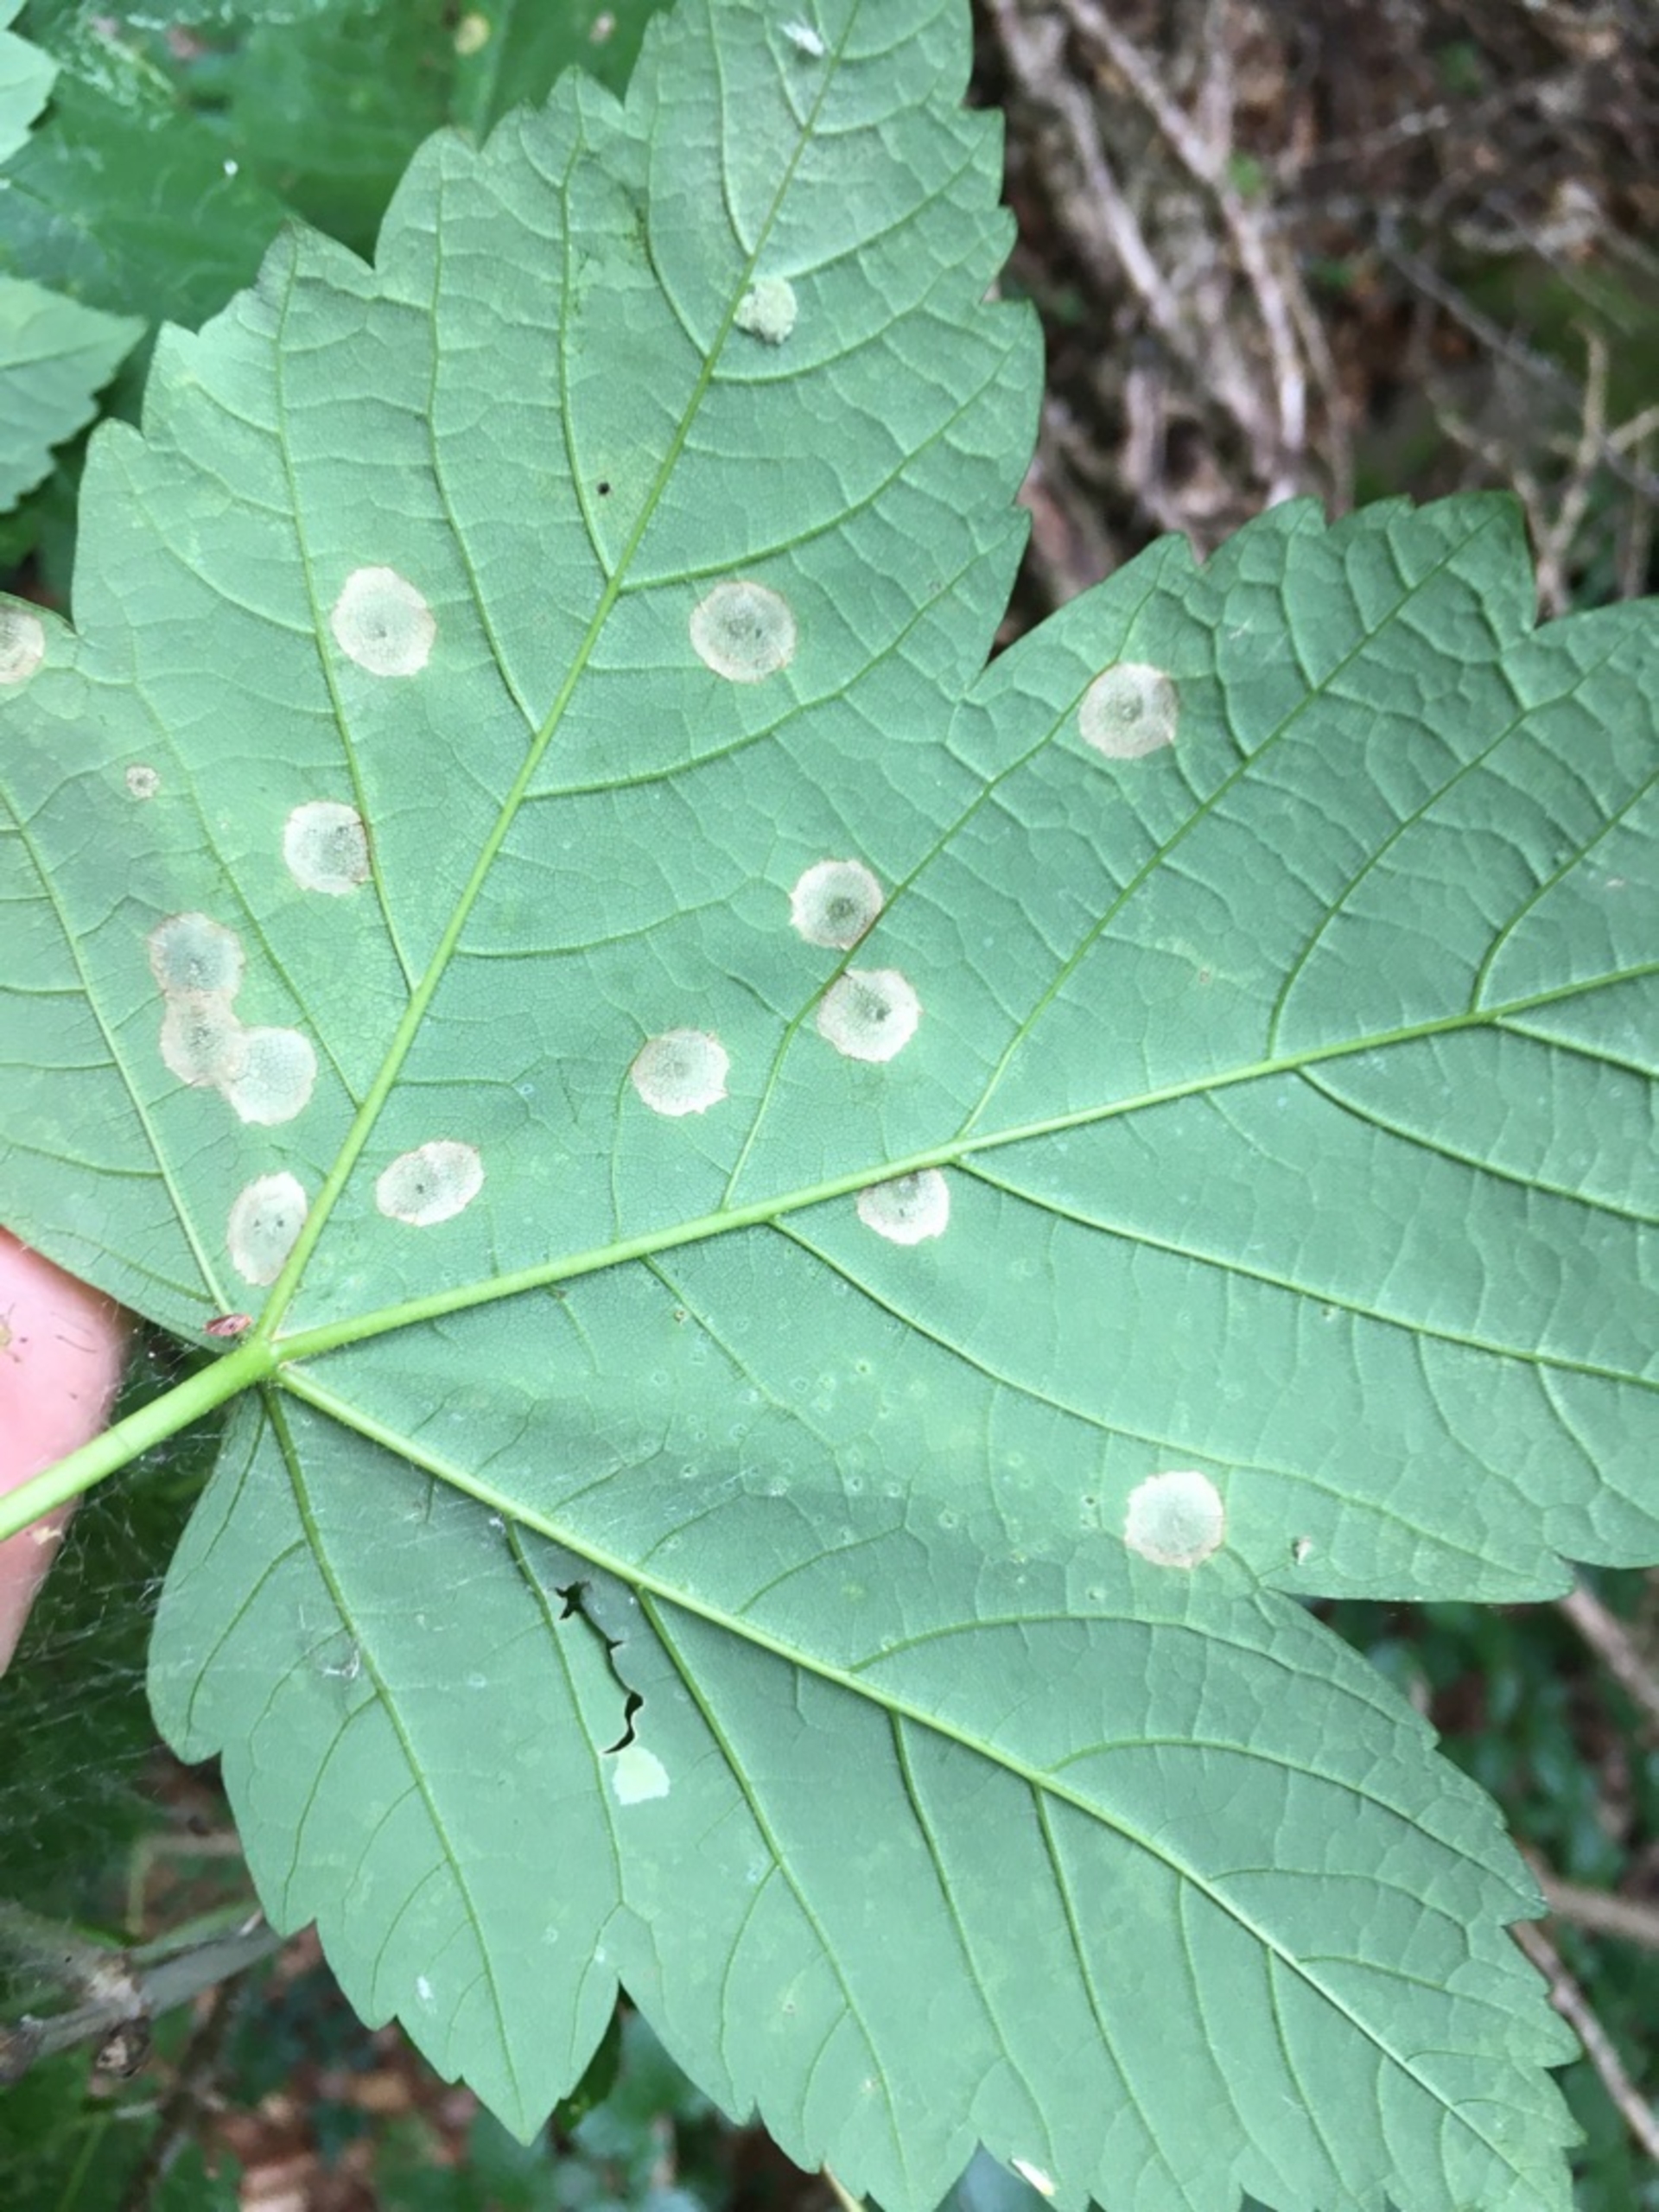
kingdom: Animalia
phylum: Arthropoda
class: Insecta
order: Diptera
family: Cecidomyiidae
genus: Drisina
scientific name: Drisina glutinosa
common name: Ahornblistgalmyg
